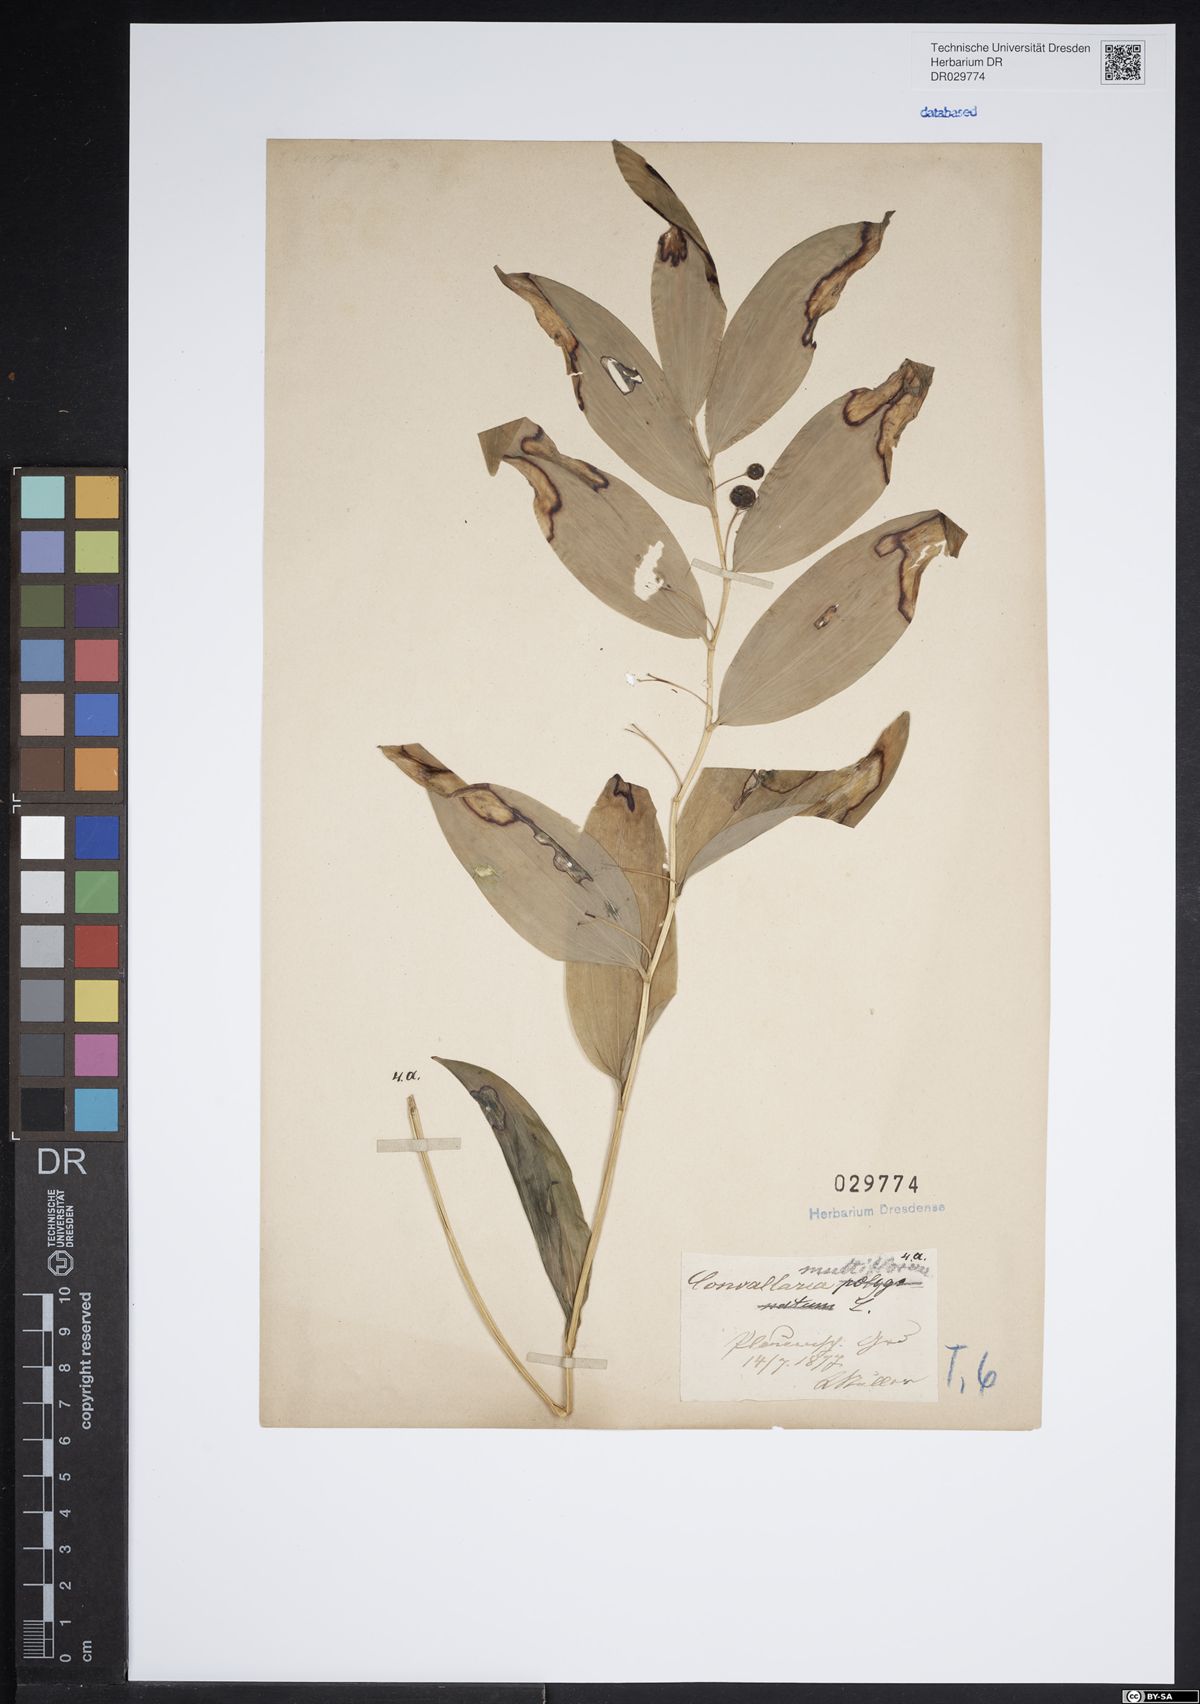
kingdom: Plantae
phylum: Tracheophyta
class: Liliopsida
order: Asparagales
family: Asparagaceae
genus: Polygonatum
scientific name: Polygonatum multiflorum
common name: Solomon's-seal
